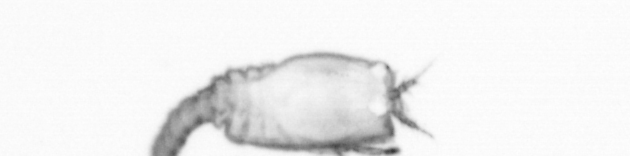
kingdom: Animalia
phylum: Annelida
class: Polychaeta
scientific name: Polychaeta
